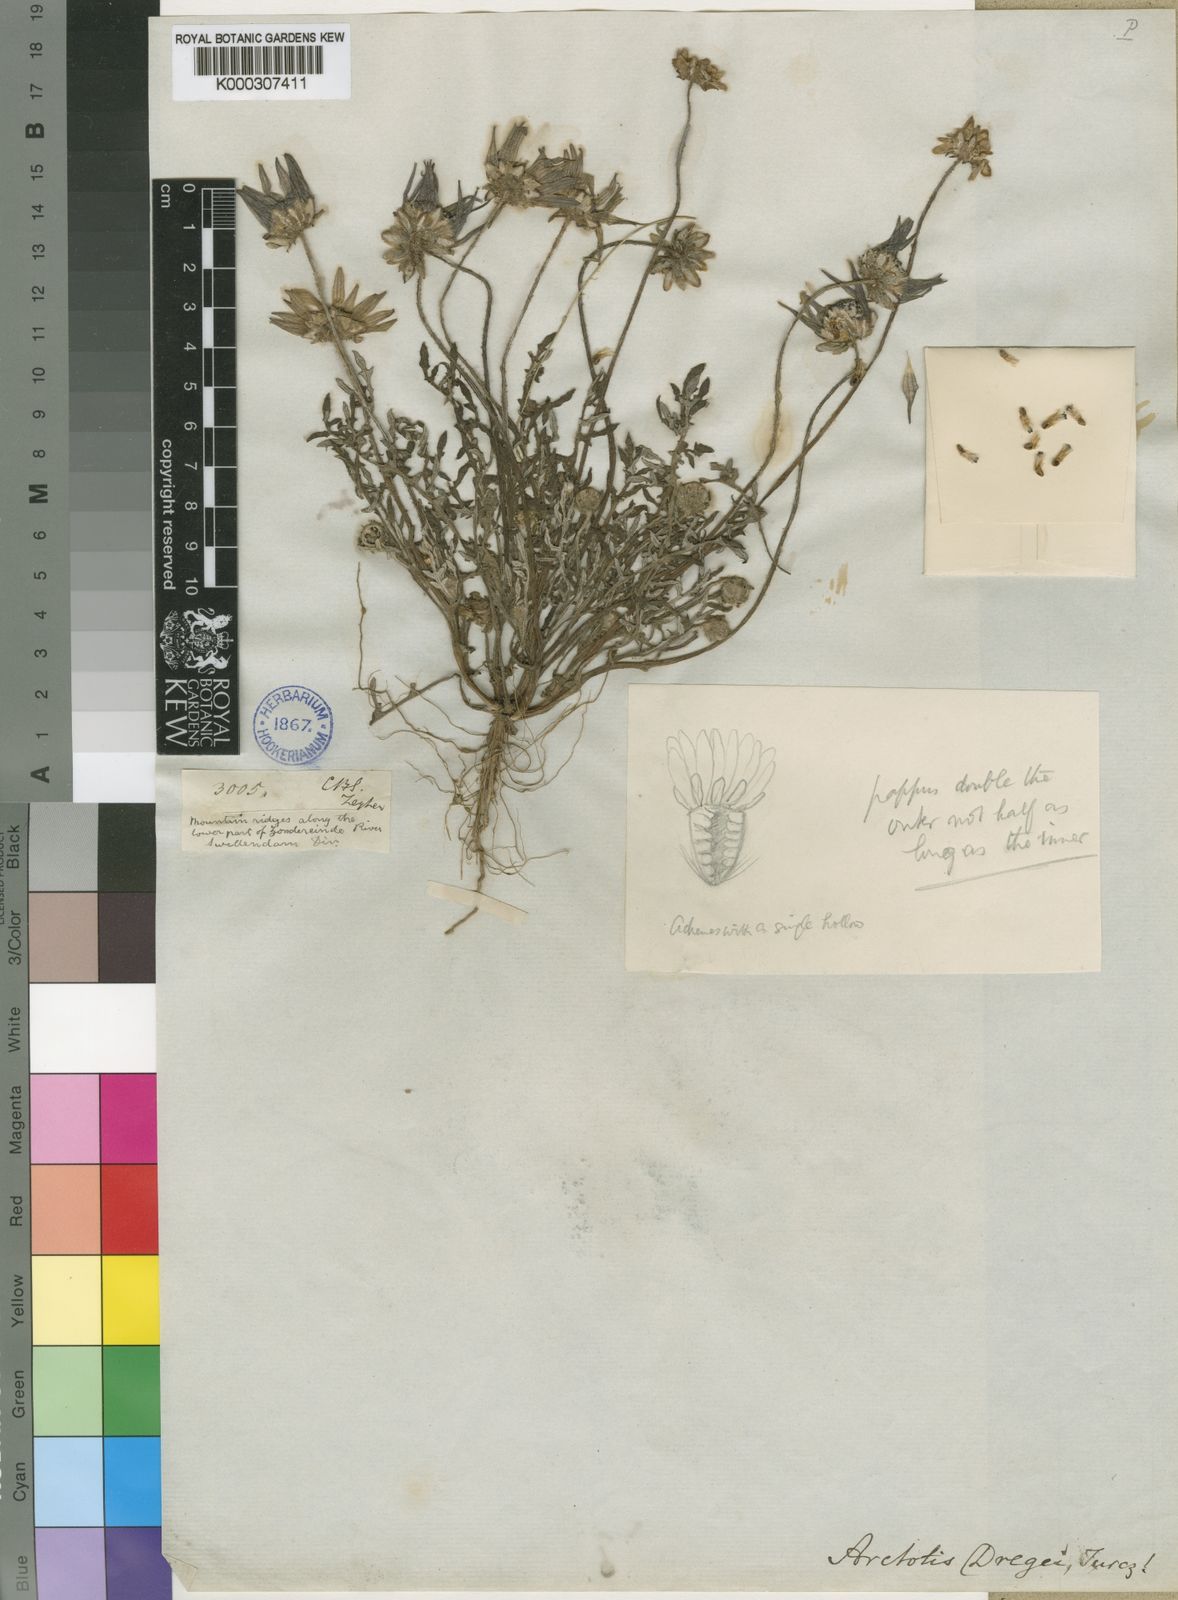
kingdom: Plantae
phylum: Tracheophyta
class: Magnoliopsida
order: Asterales
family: Asteraceae
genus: Arctotis
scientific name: Arctotis dregei
